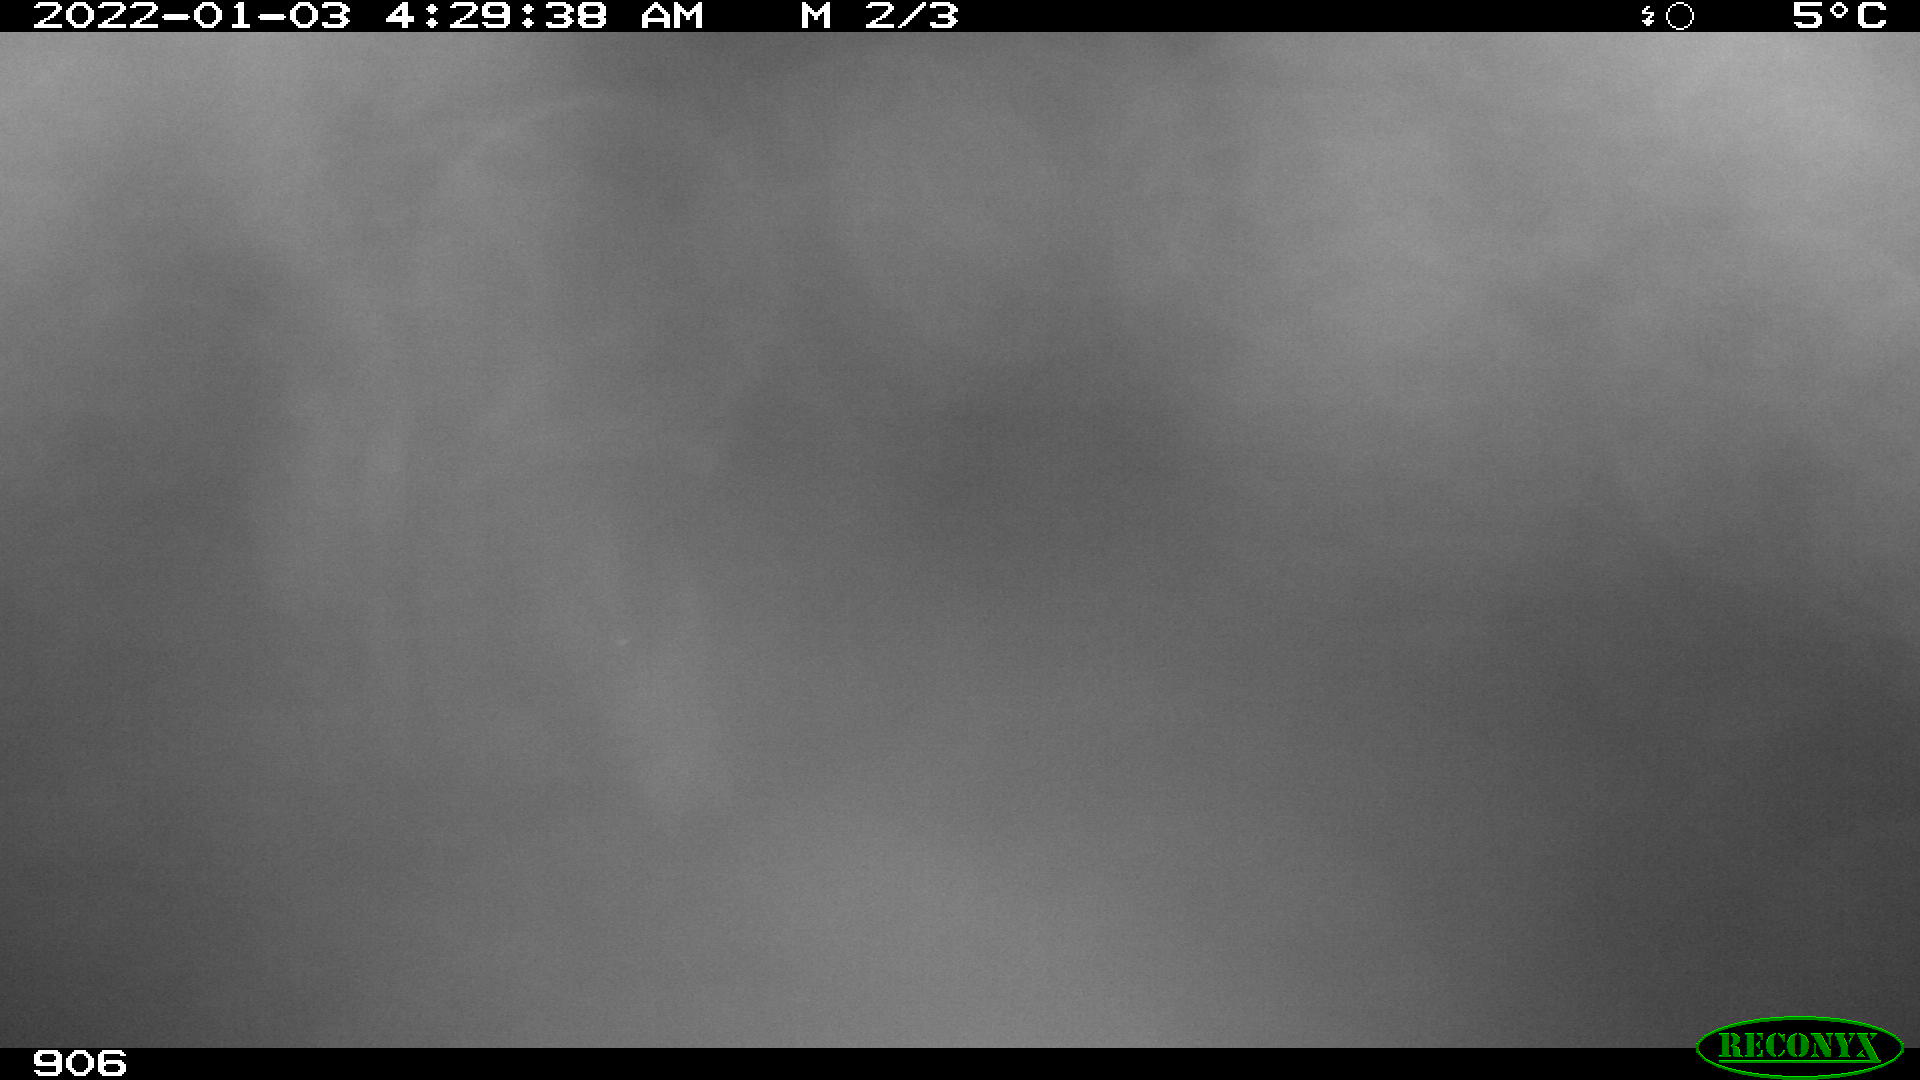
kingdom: Animalia
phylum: Chordata
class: Mammalia
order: Perissodactyla
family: Equidae
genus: Equus
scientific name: Equus caballus
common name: Horse
